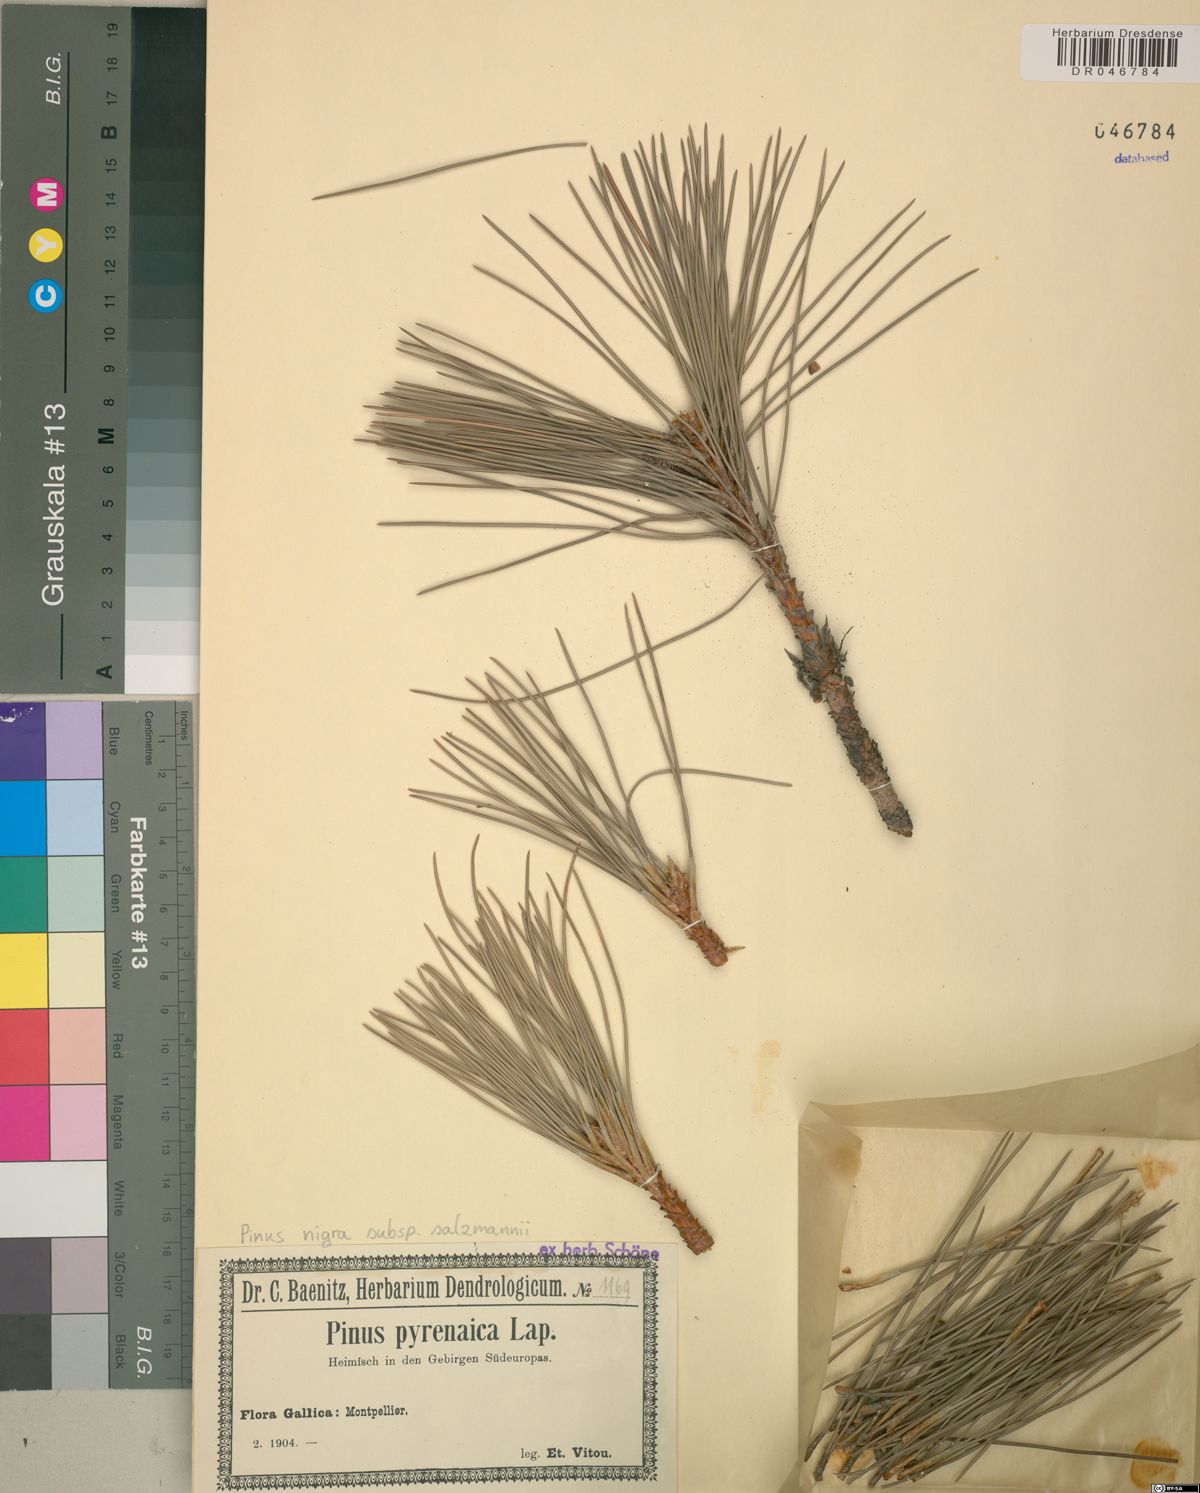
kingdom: Plantae
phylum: Tracheophyta
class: Pinopsida
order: Pinales
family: Pinaceae
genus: Pinus
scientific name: Pinus nigra
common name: Austrian pine
